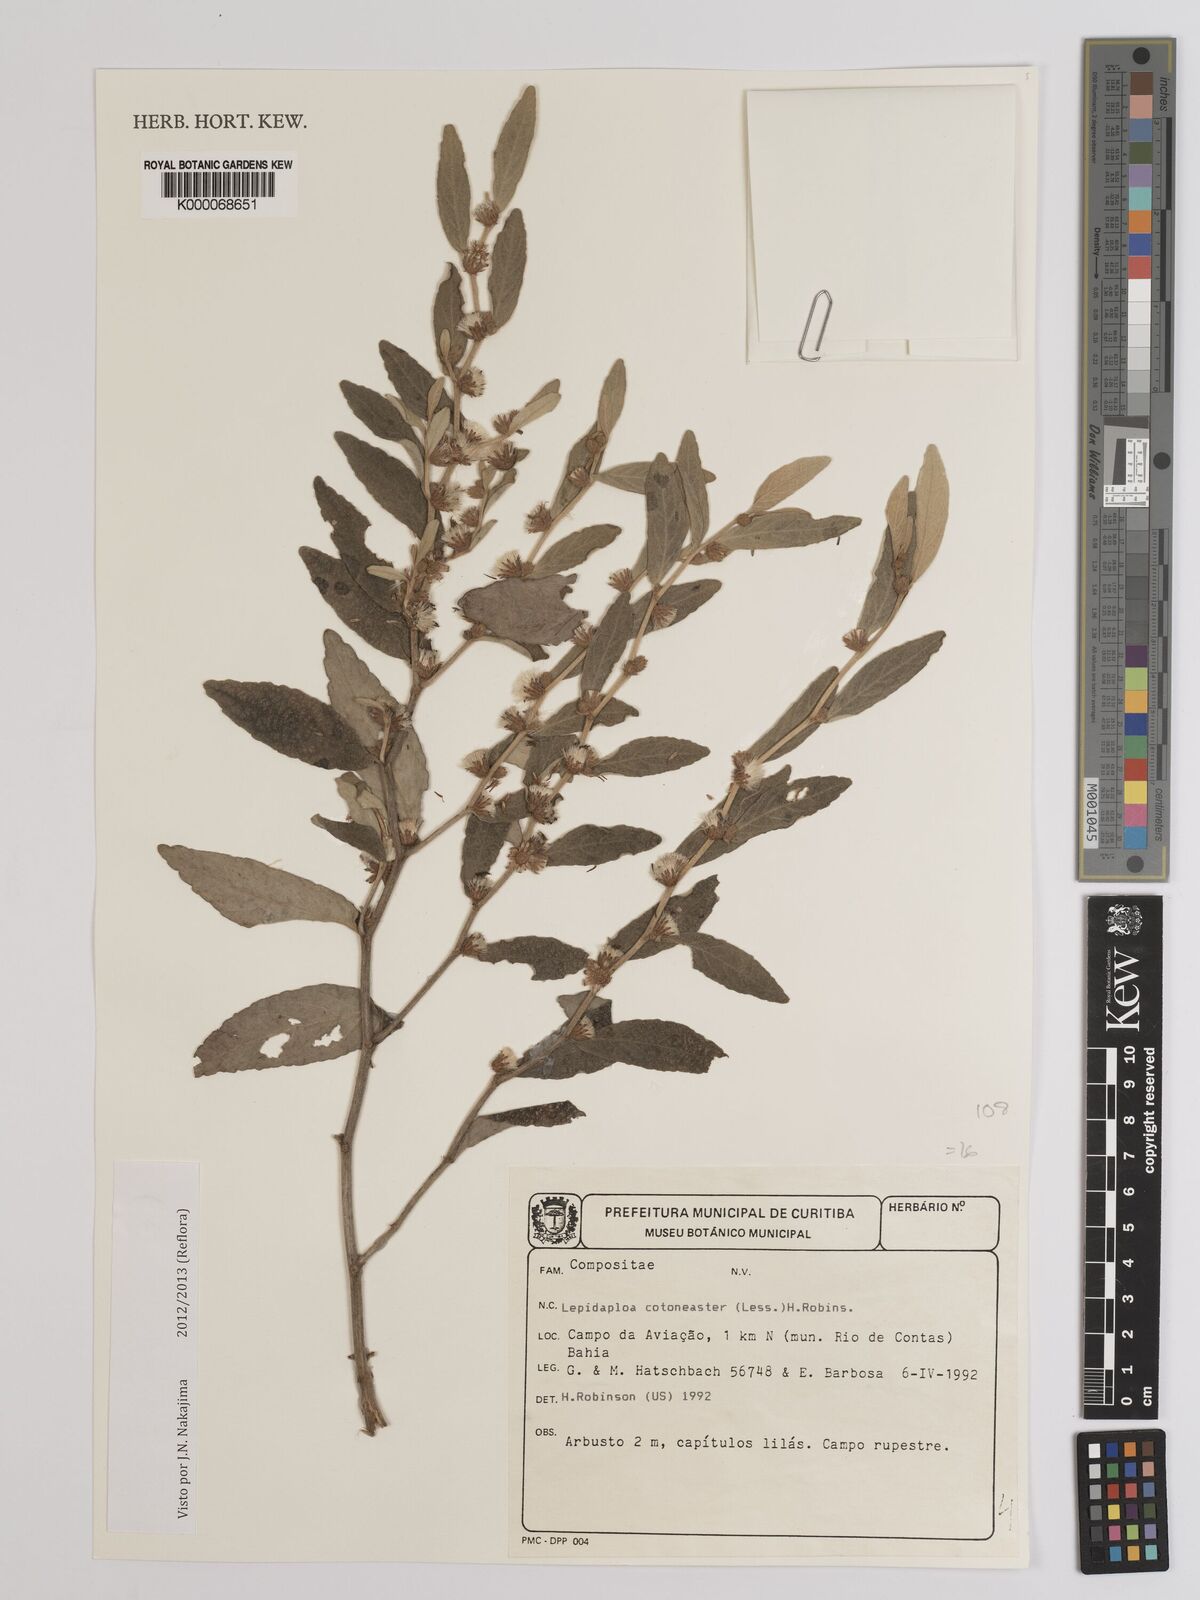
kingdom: Plantae
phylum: Tracheophyta
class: Magnoliopsida
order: Asterales
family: Asteraceae
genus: Lepidaploa
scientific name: Lepidaploa cotoneaster
